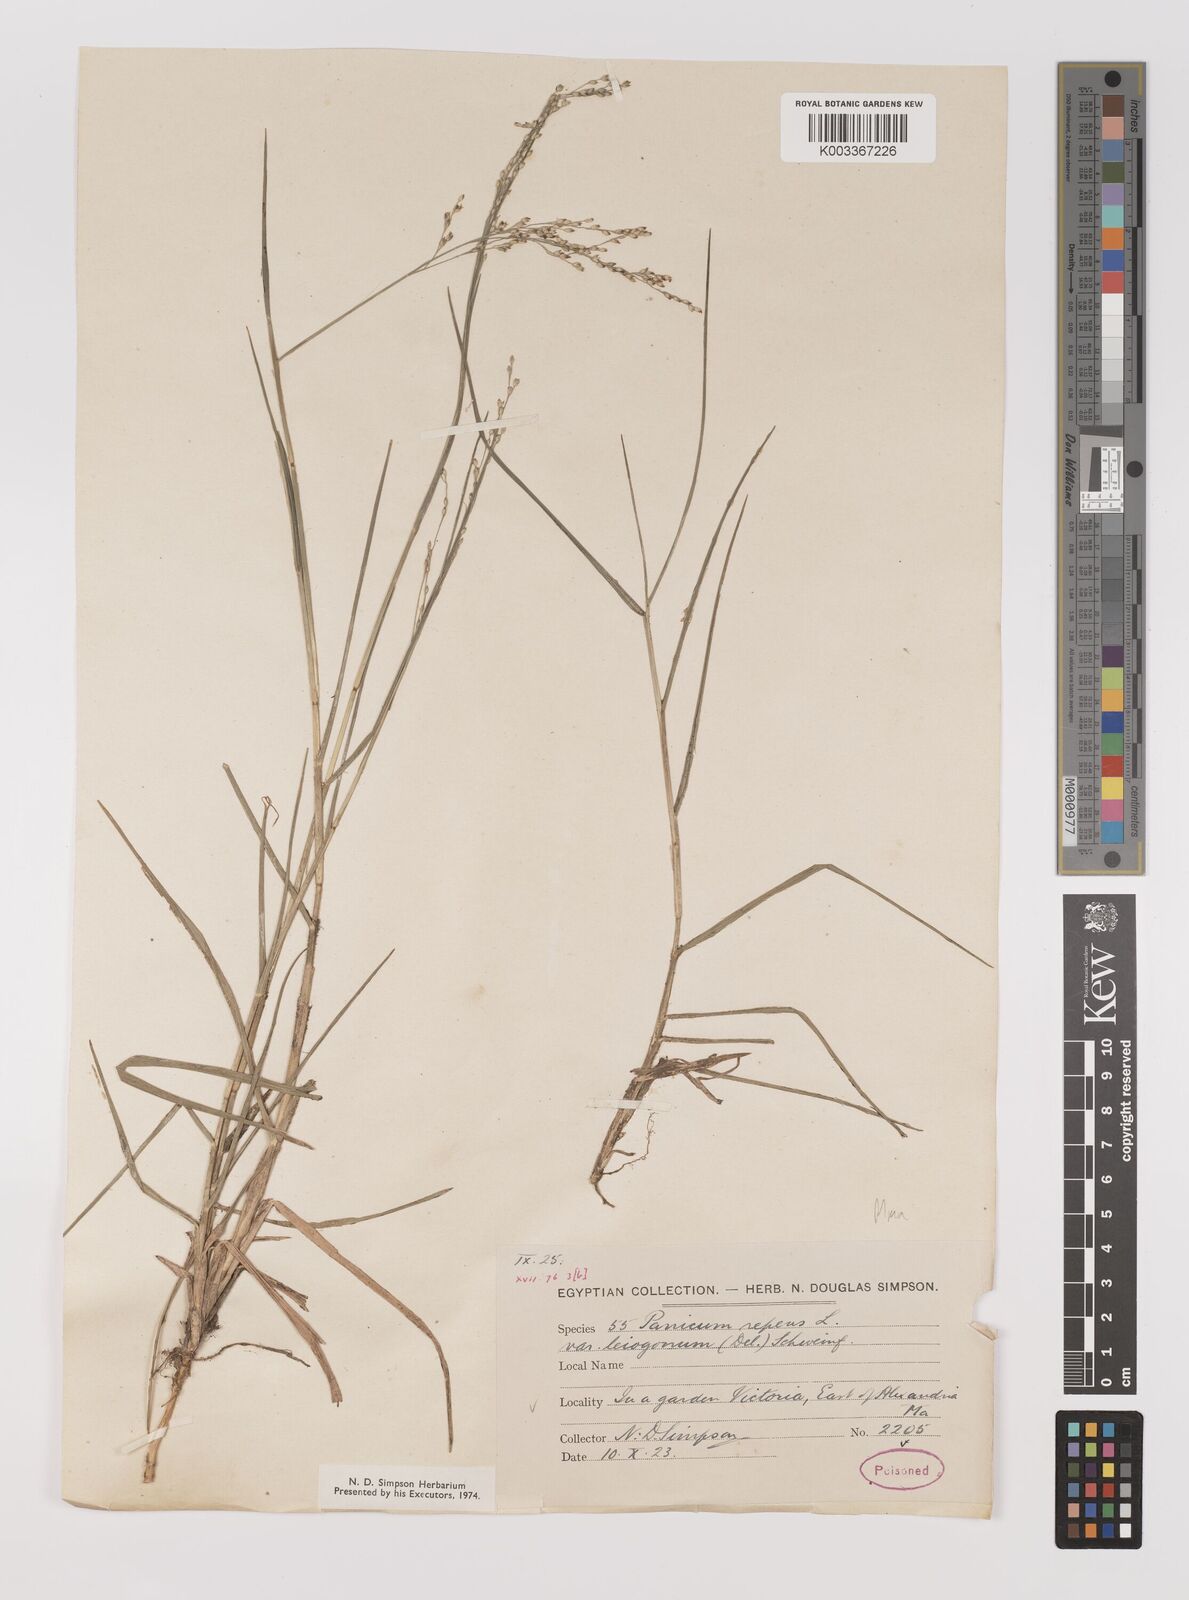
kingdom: Plantae
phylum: Tracheophyta
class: Liliopsida
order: Poales
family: Poaceae
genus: Panicum
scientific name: Panicum repens
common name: Torpedo grass
